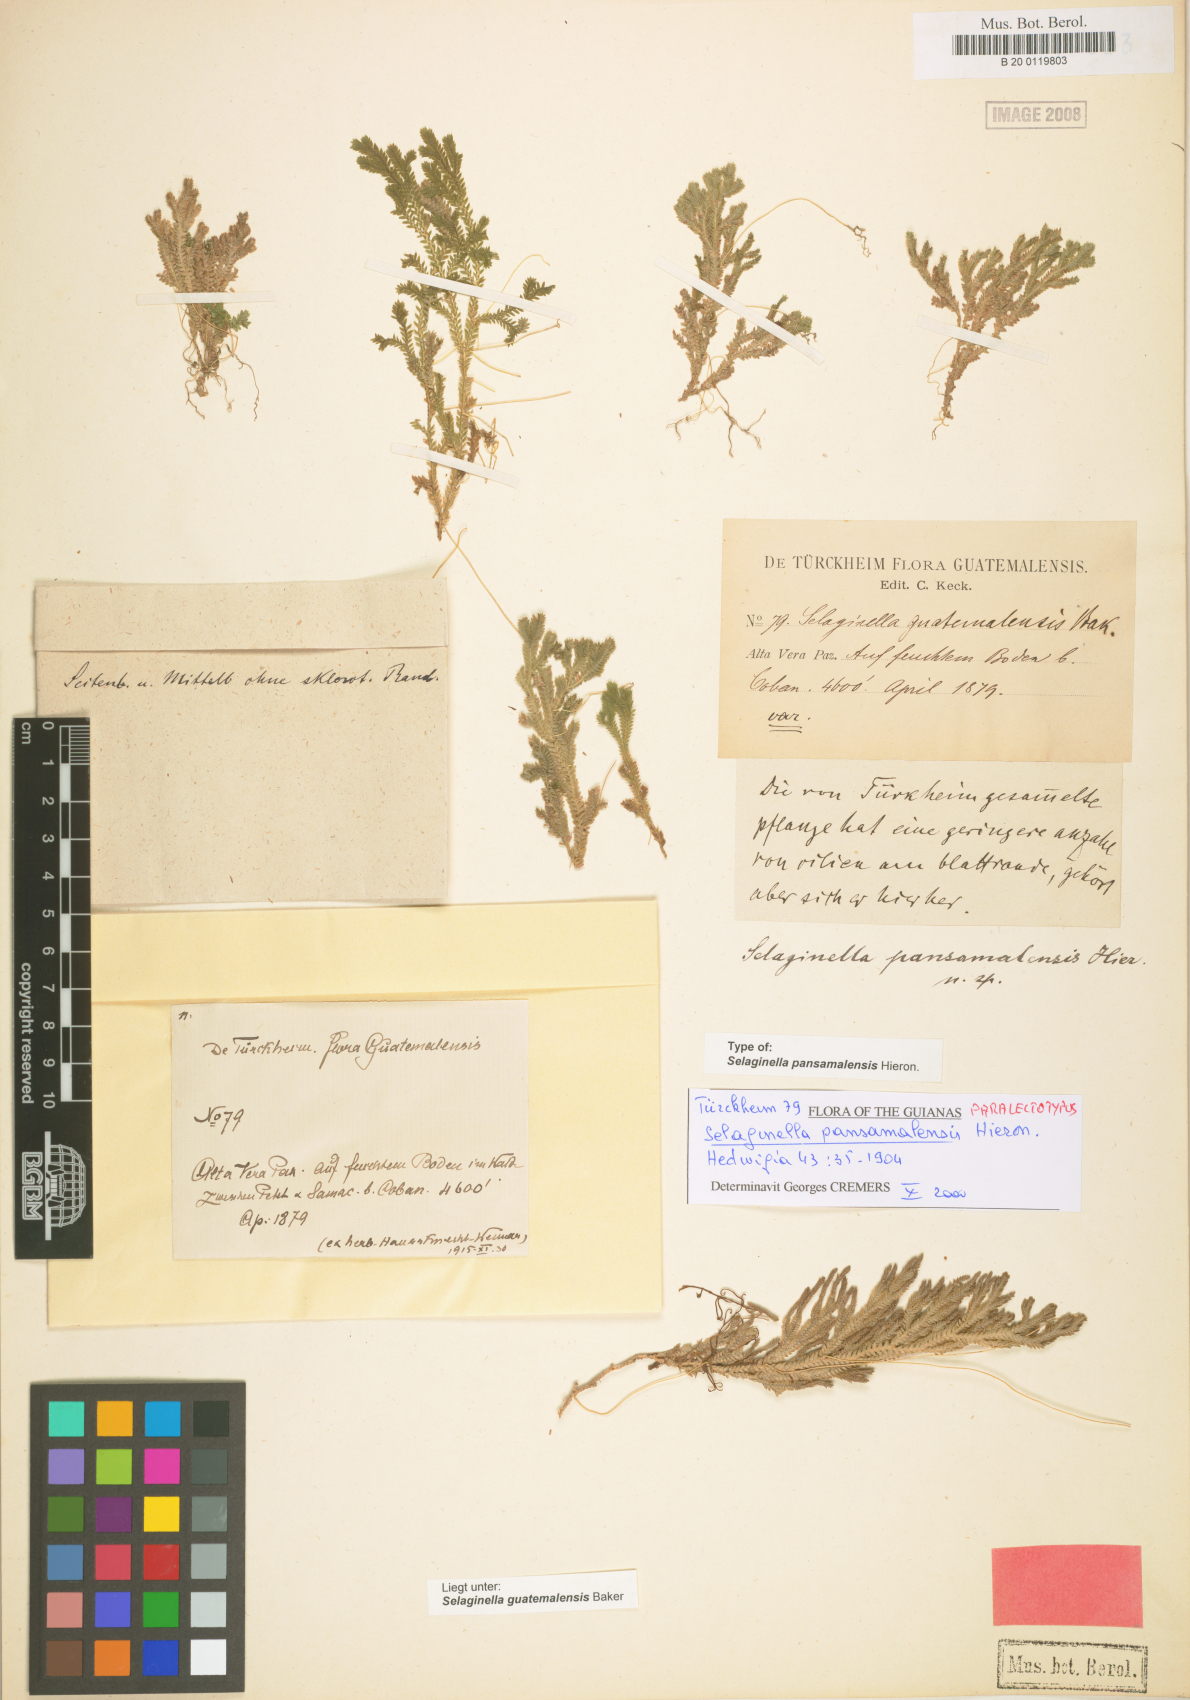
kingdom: Plantae
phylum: Tracheophyta
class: Lycopodiopsida
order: Selaginellales
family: Selaginellaceae
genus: Selaginella
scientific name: Selaginella guatemalensis
